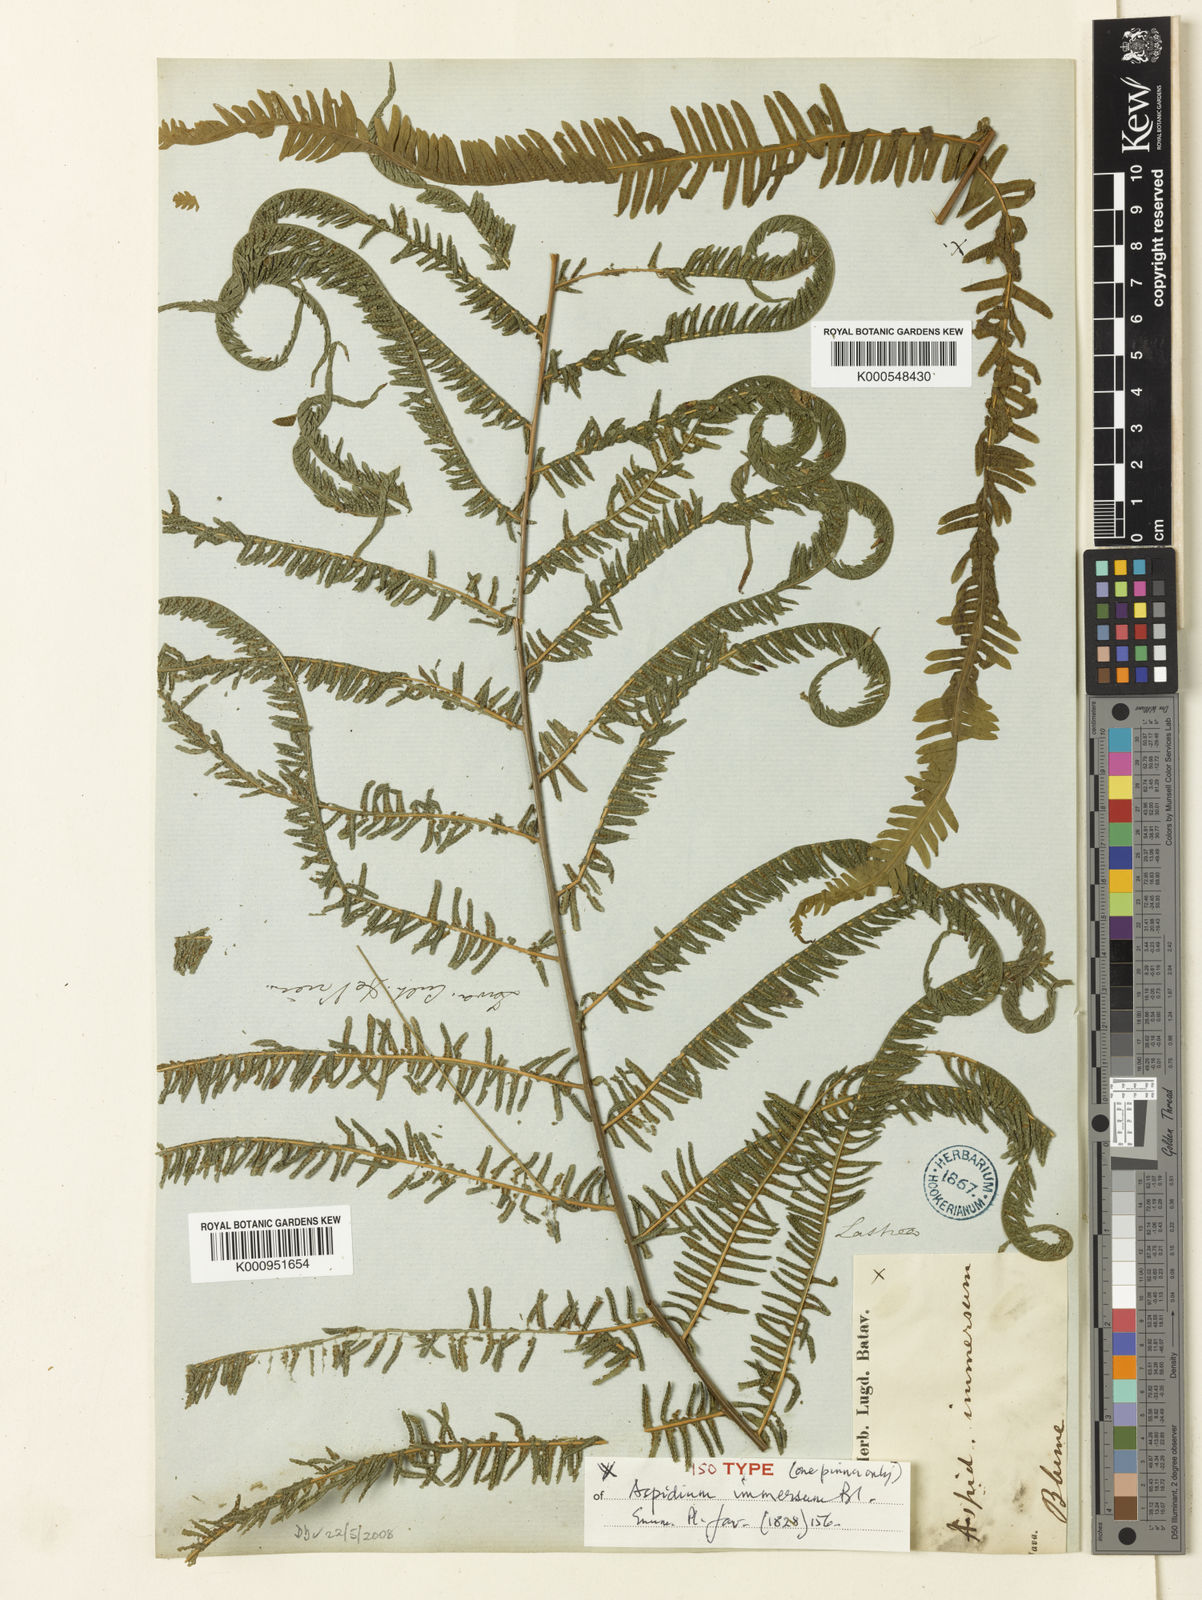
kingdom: Plantae
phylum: Tracheophyta
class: Polypodiopsida
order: Polypodiales
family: Thelypteridaceae
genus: Amblovenatum
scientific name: Amblovenatum immersum
